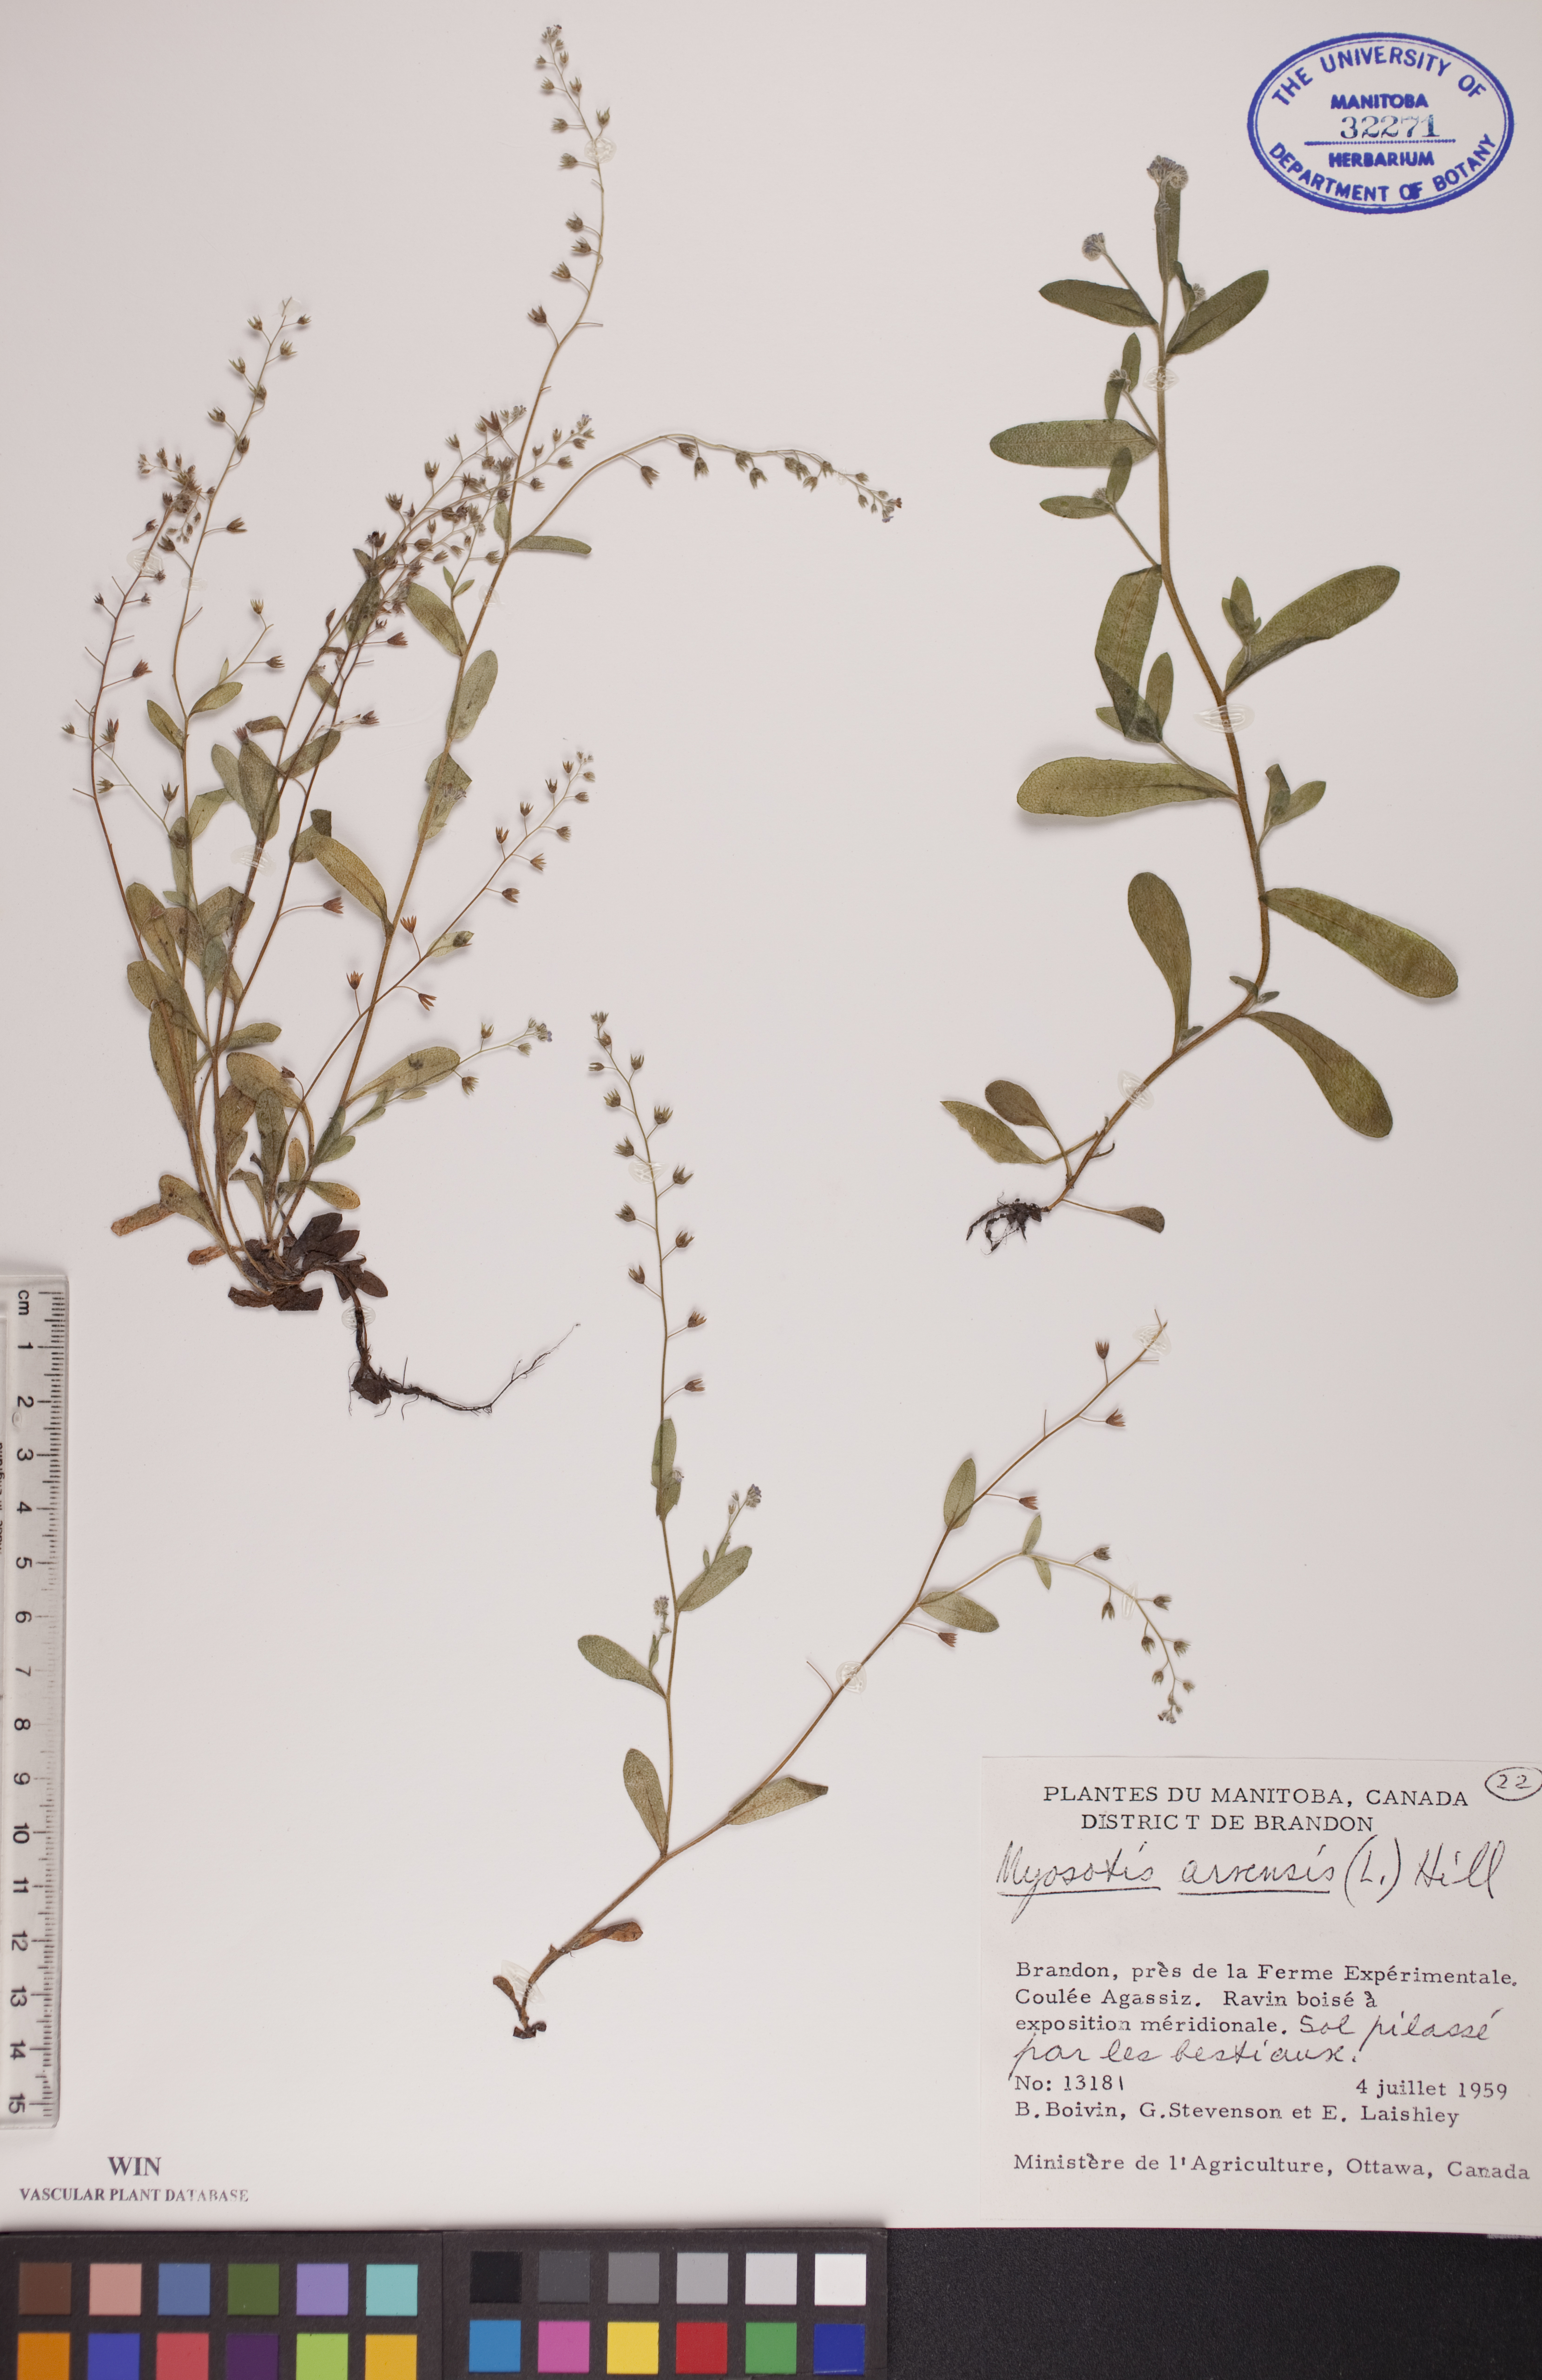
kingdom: Plantae
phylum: Tracheophyta
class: Magnoliopsida
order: Boraginales
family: Boraginaceae
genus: Myosotis
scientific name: Myosotis arvensis
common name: Field forget-me-not
